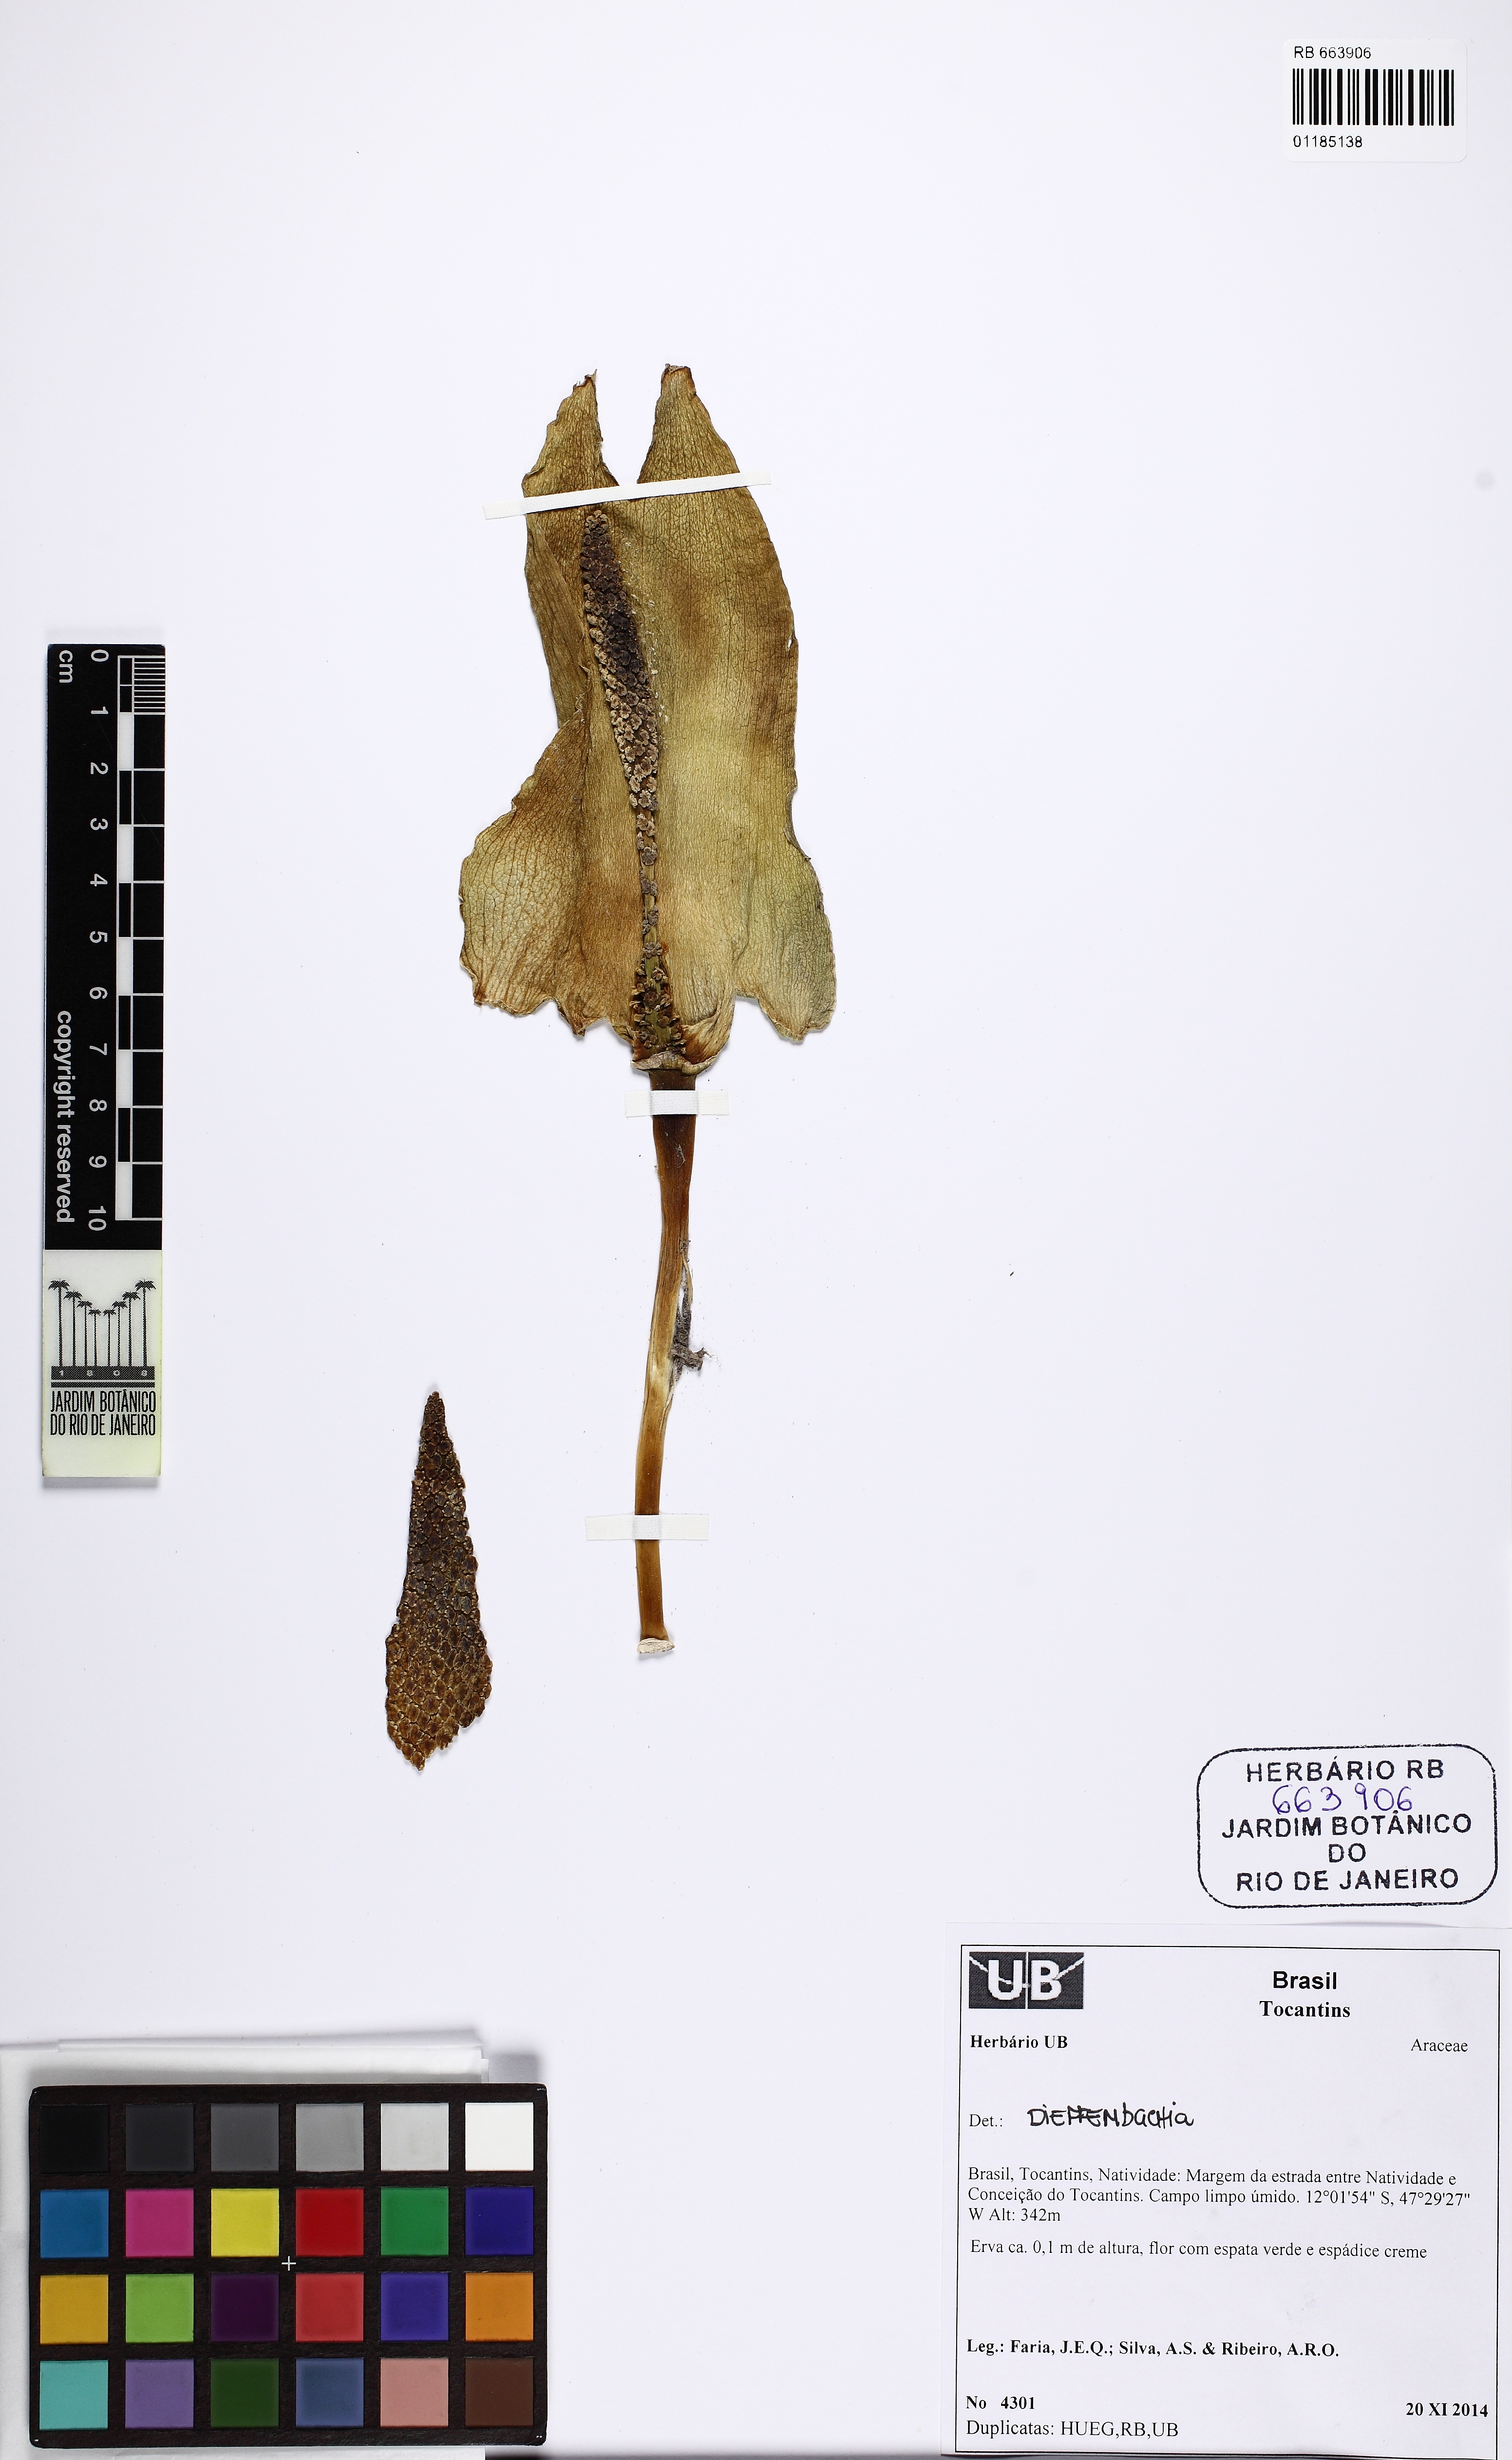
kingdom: Plantae
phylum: Tracheophyta
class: Liliopsida
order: Alismatales
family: Araceae
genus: Dieffenbachia
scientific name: Dieffenbachia
